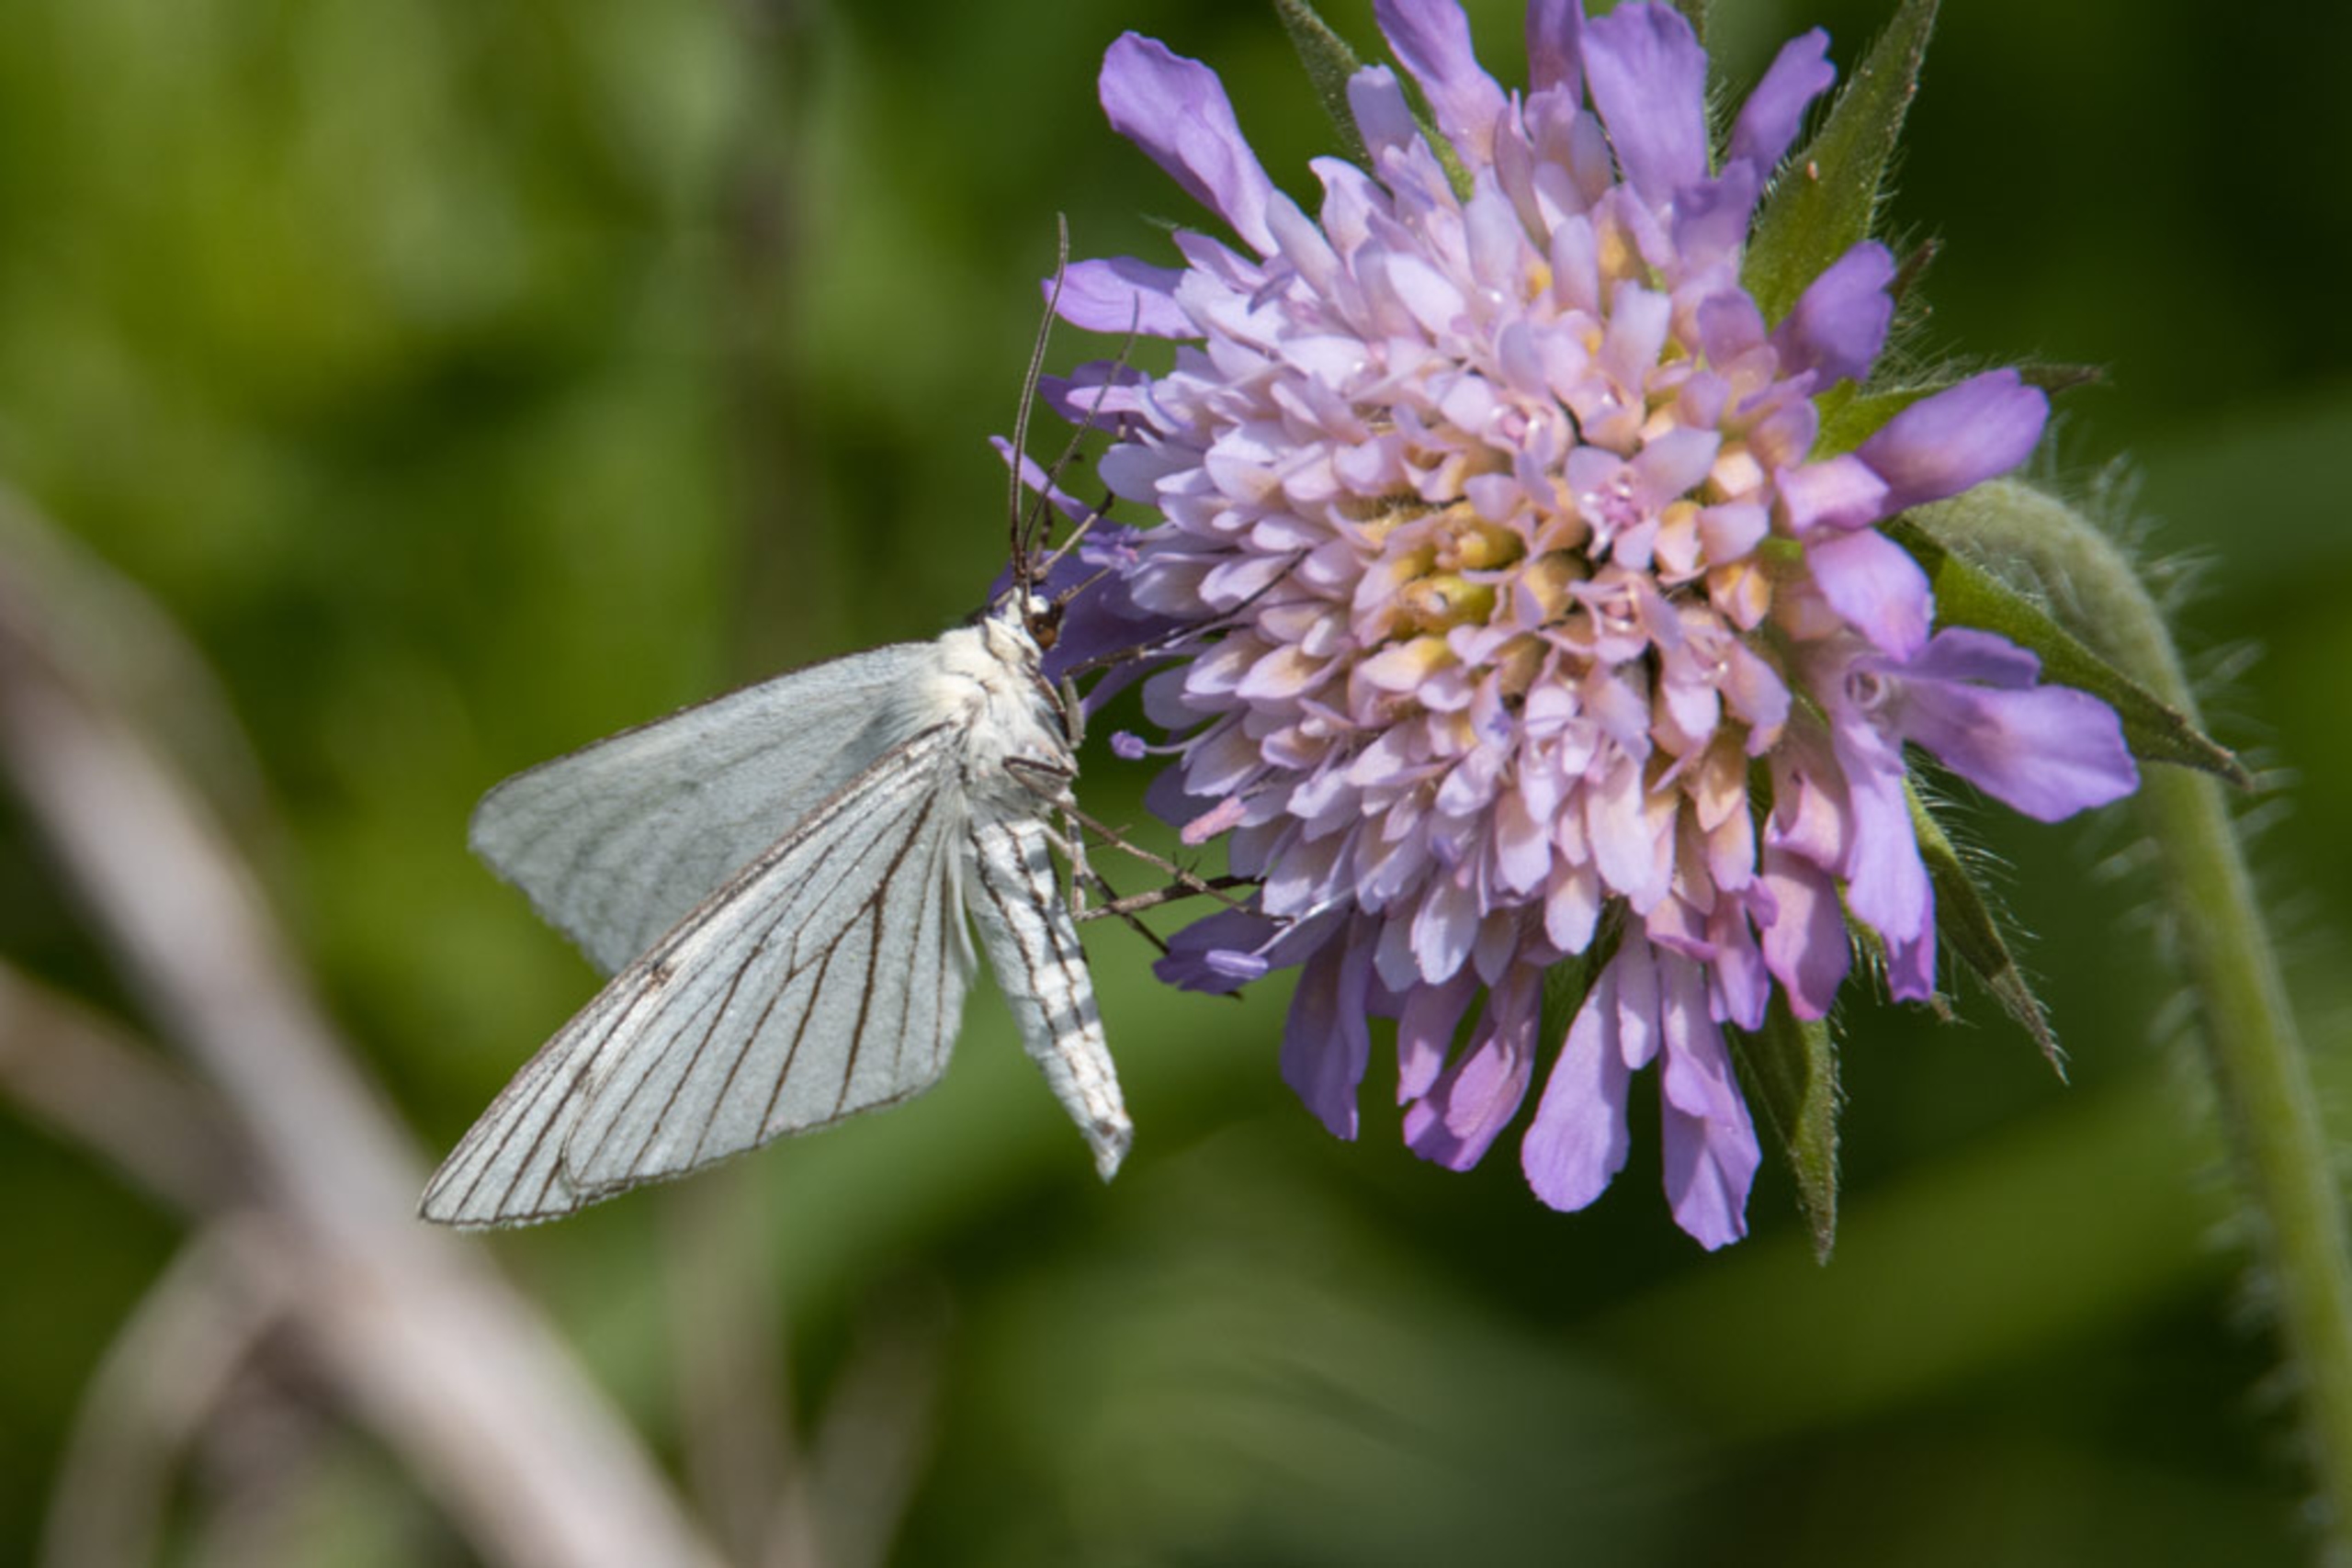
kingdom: Animalia
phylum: Arthropoda
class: Insecta
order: Lepidoptera
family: Geometridae
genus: Siona
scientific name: Siona lineata
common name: Hvidvingemåler
